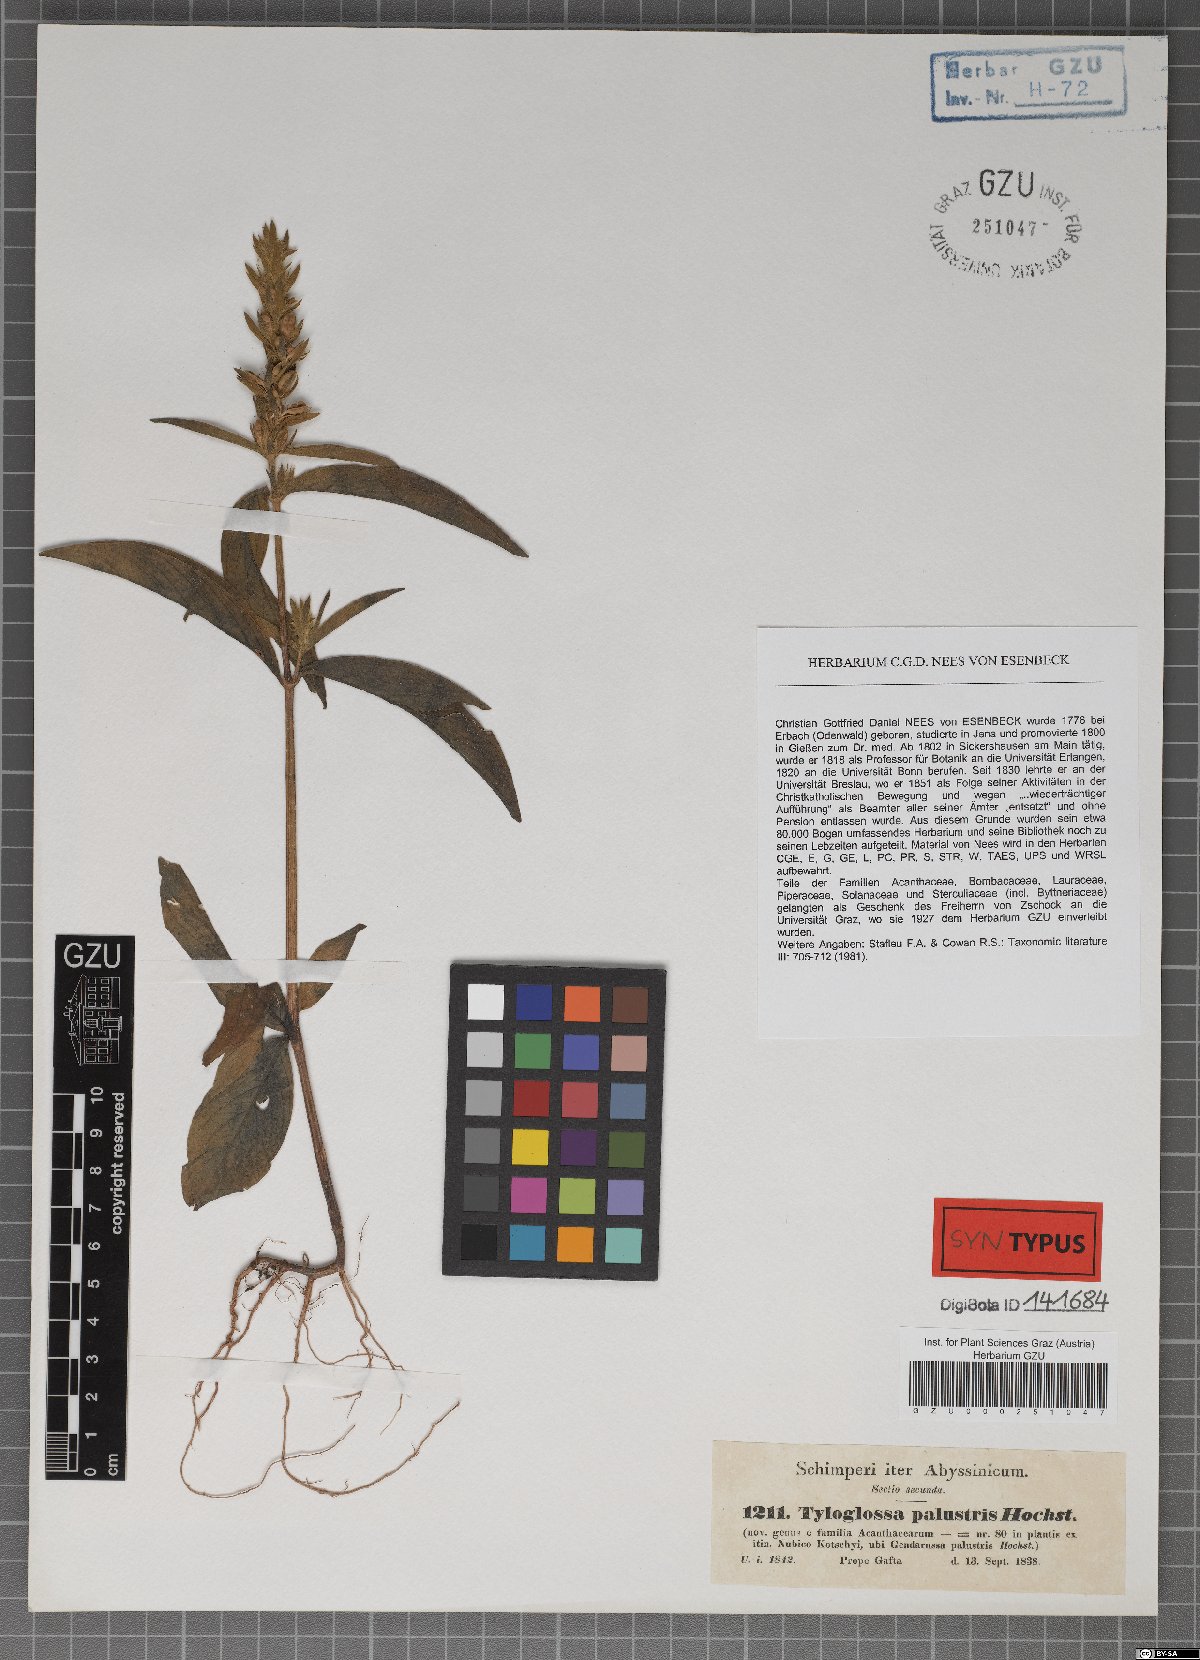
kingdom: Plantae
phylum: Tracheophyta
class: Magnoliopsida
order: Lamiales
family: Acanthaceae
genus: Justicia
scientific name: Justicia flava
